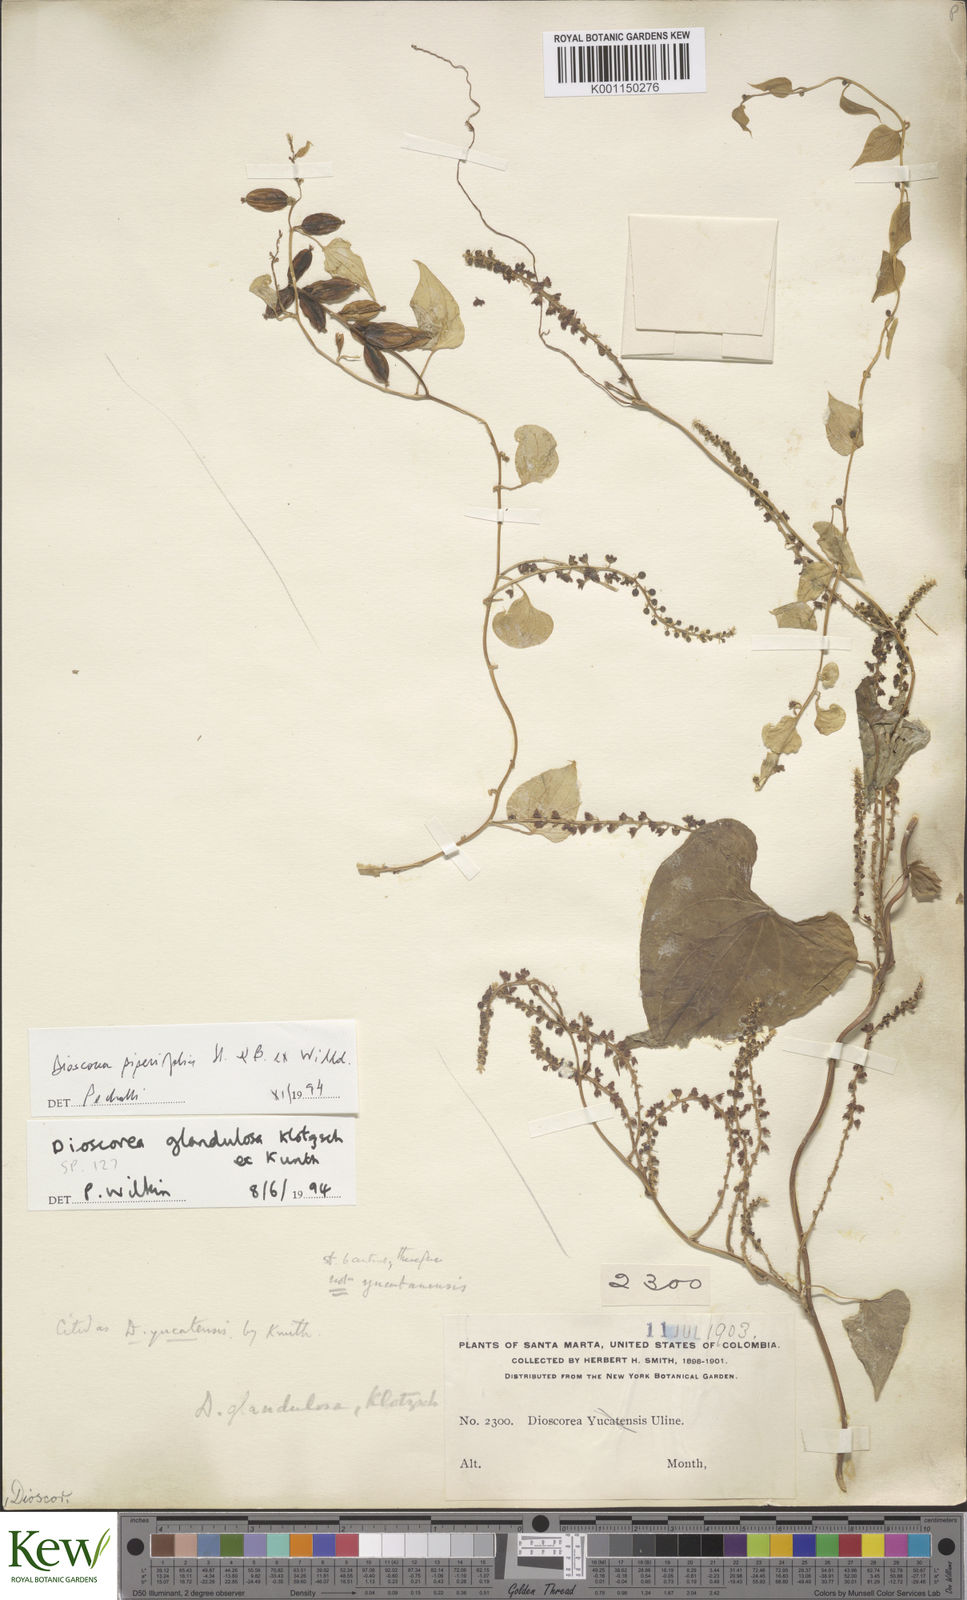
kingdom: Plantae
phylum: Tracheophyta
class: Liliopsida
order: Dioscoreales
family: Dioscoreaceae
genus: Dioscorea
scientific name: Dioscorea piperifolia
